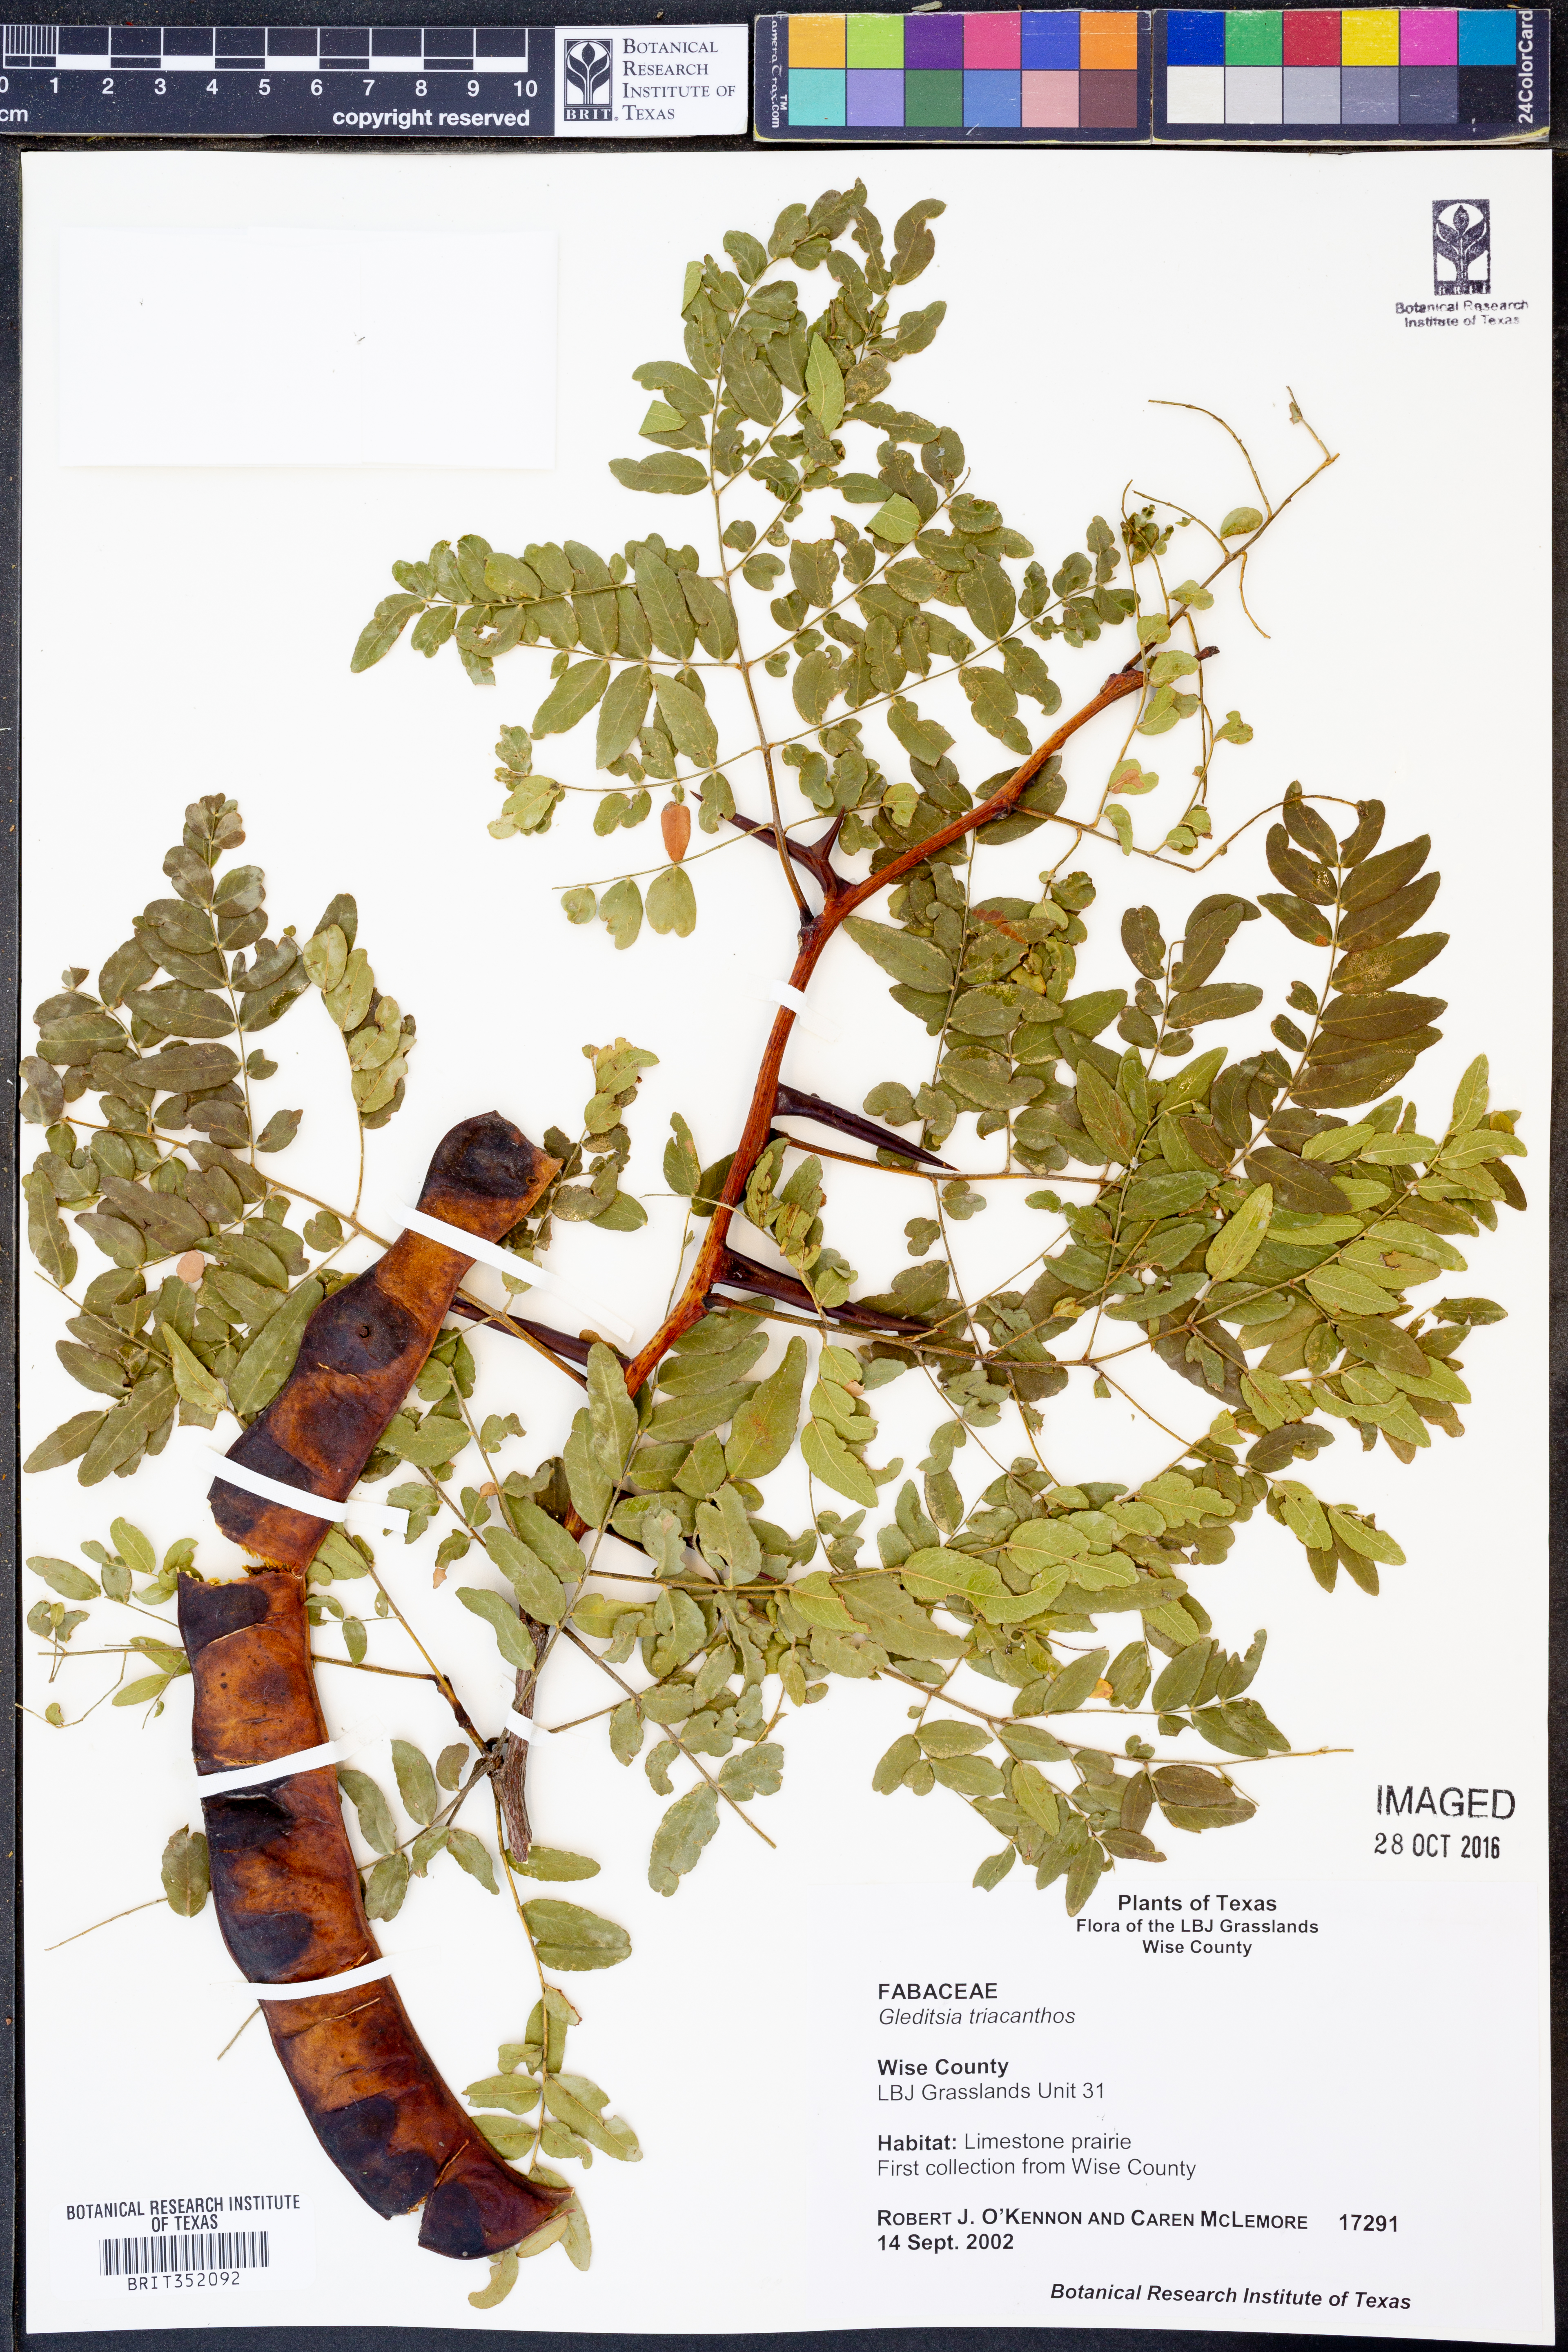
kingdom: Plantae
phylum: Tracheophyta
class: Magnoliopsida
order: Fabales
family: Fabaceae
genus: Gleditsia
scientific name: Gleditsia triacanthos
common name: Common honeylocust
